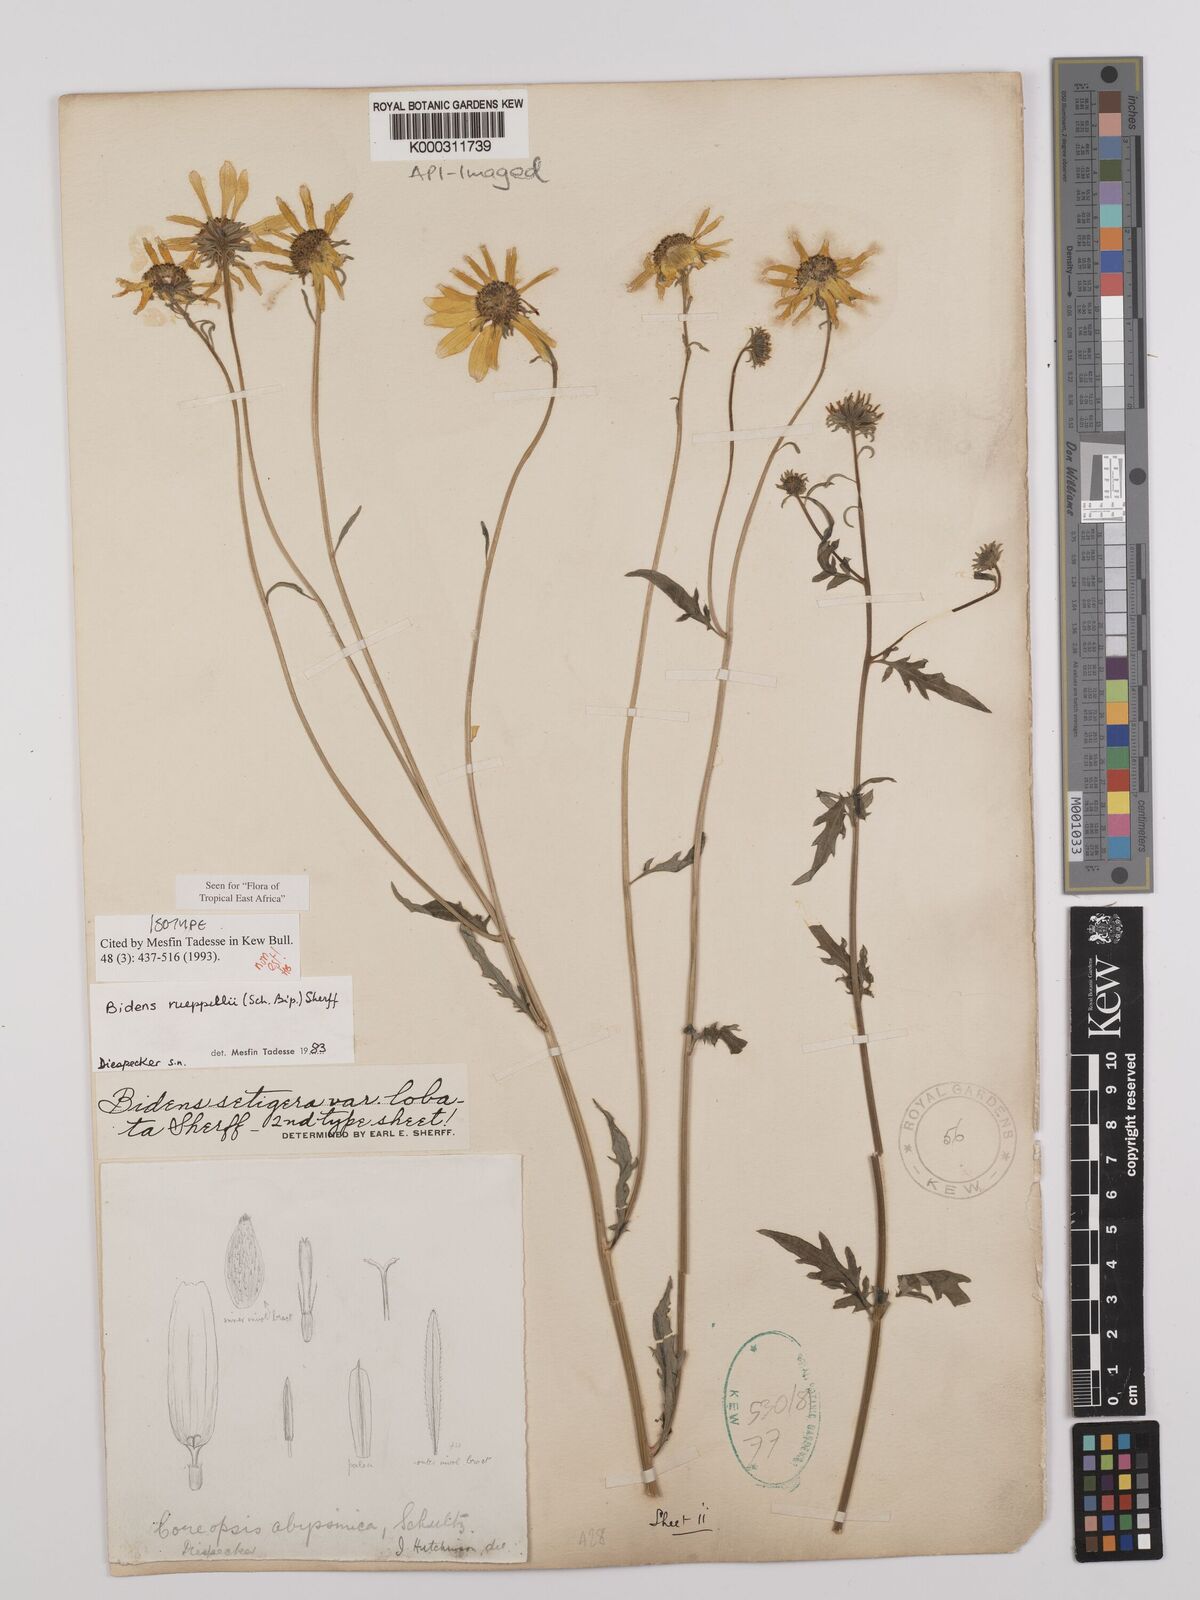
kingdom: Plantae
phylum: Tracheophyta
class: Magnoliopsida
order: Asterales
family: Asteraceae
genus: Bidens
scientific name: Bidens rueppellii
